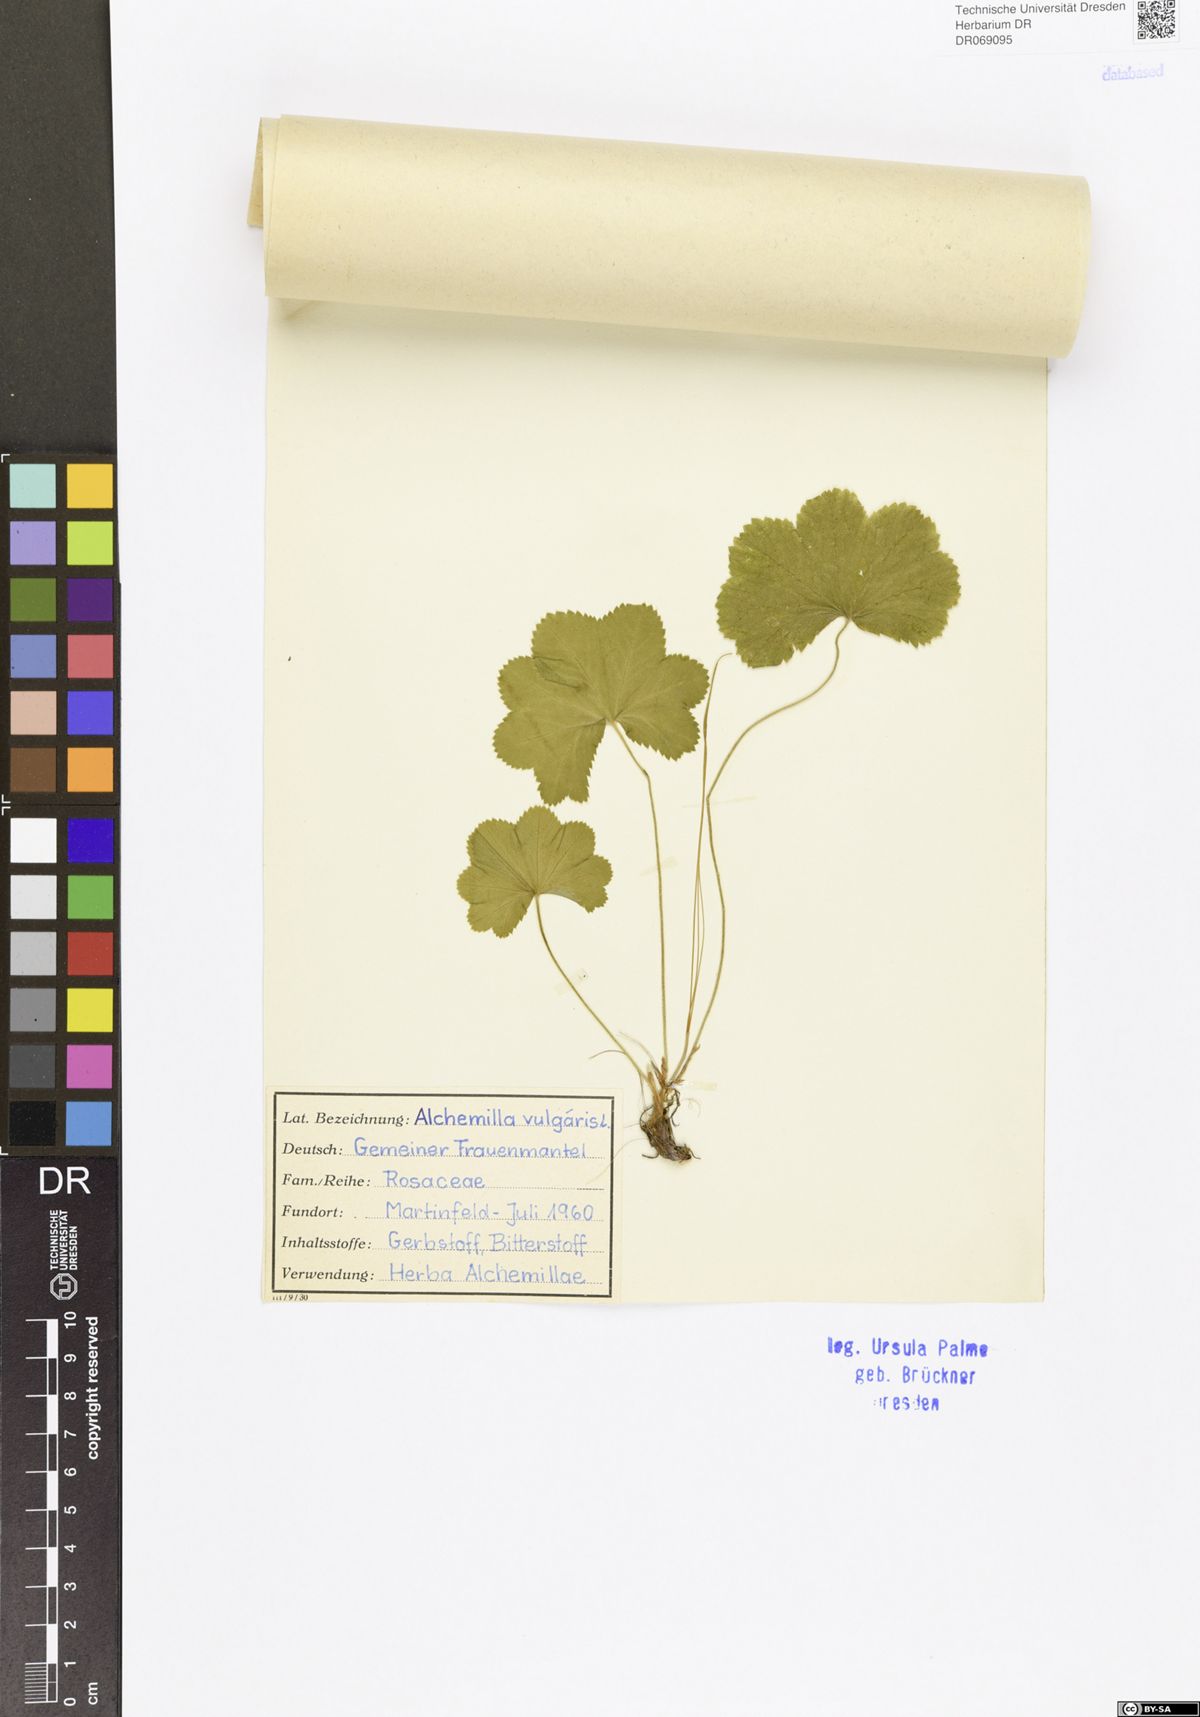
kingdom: Plantae
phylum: Tracheophyta
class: Magnoliopsida
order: Rosales
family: Rosaceae
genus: Alchemilla
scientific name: Alchemilla glabra
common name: Smooth lady's-mantle
